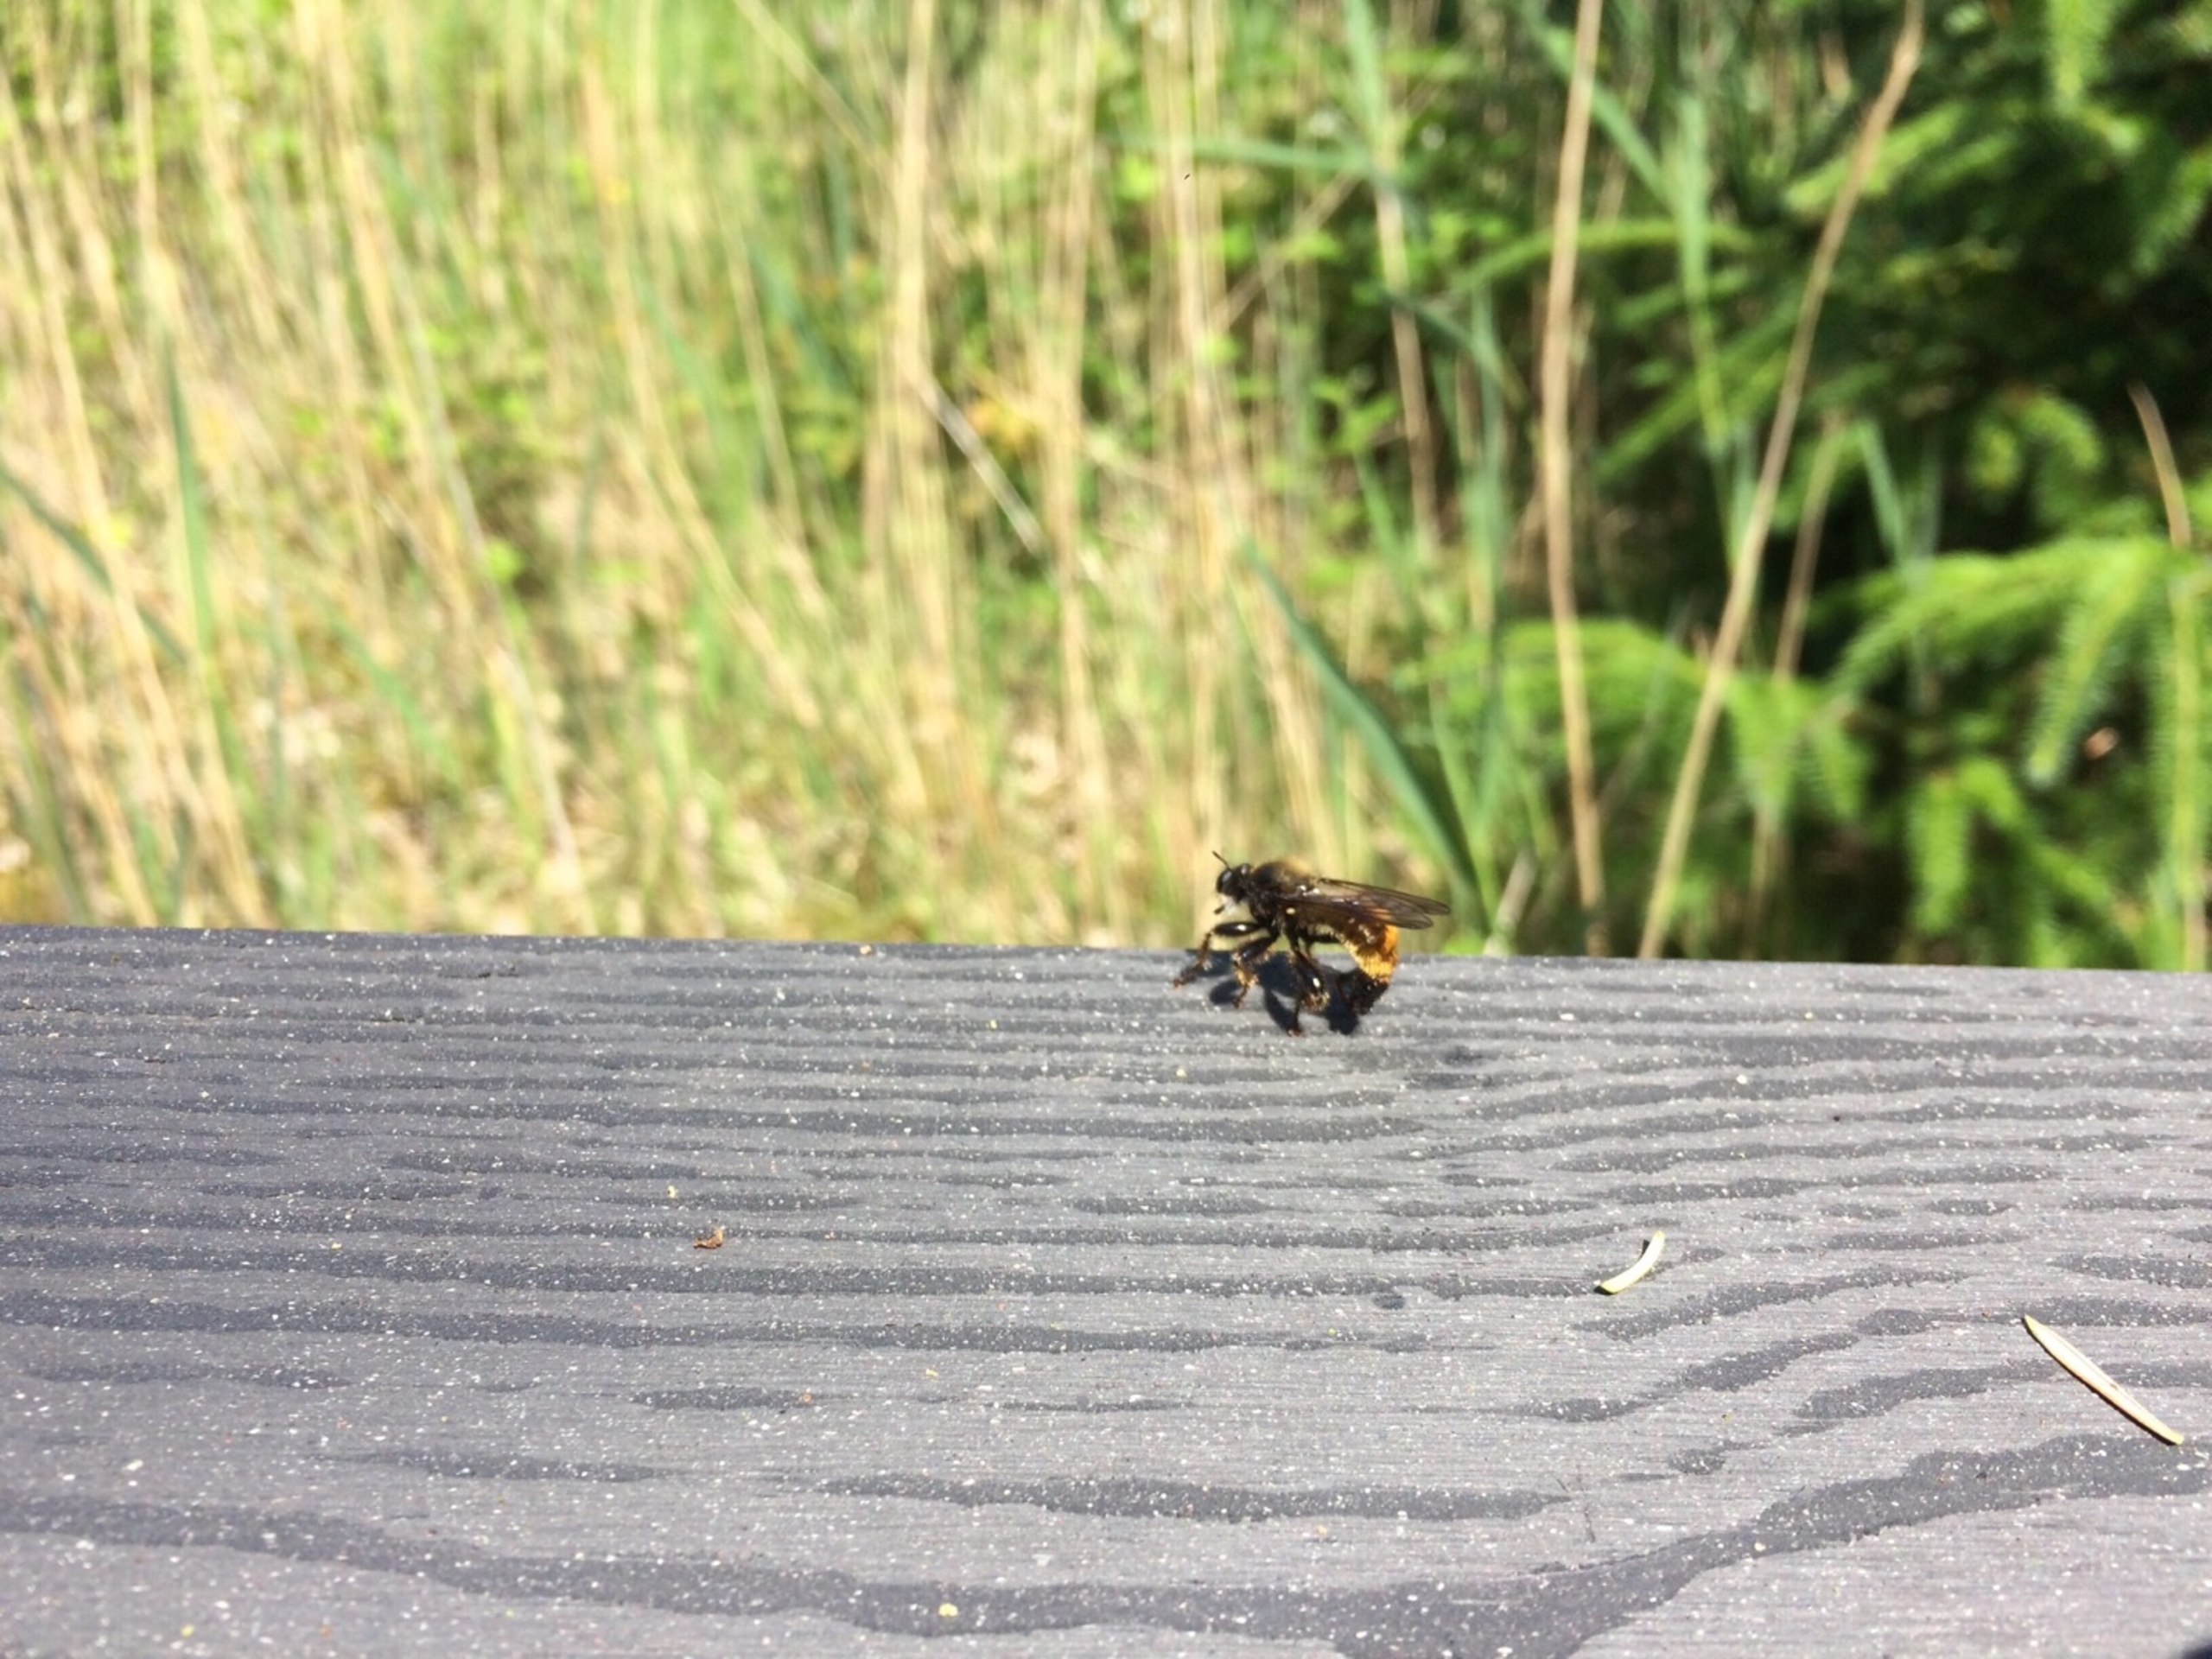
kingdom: Animalia
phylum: Arthropoda
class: Insecta
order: Diptera
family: Asilidae
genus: Laphria
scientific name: Laphria flava
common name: Gul vedrovflue
